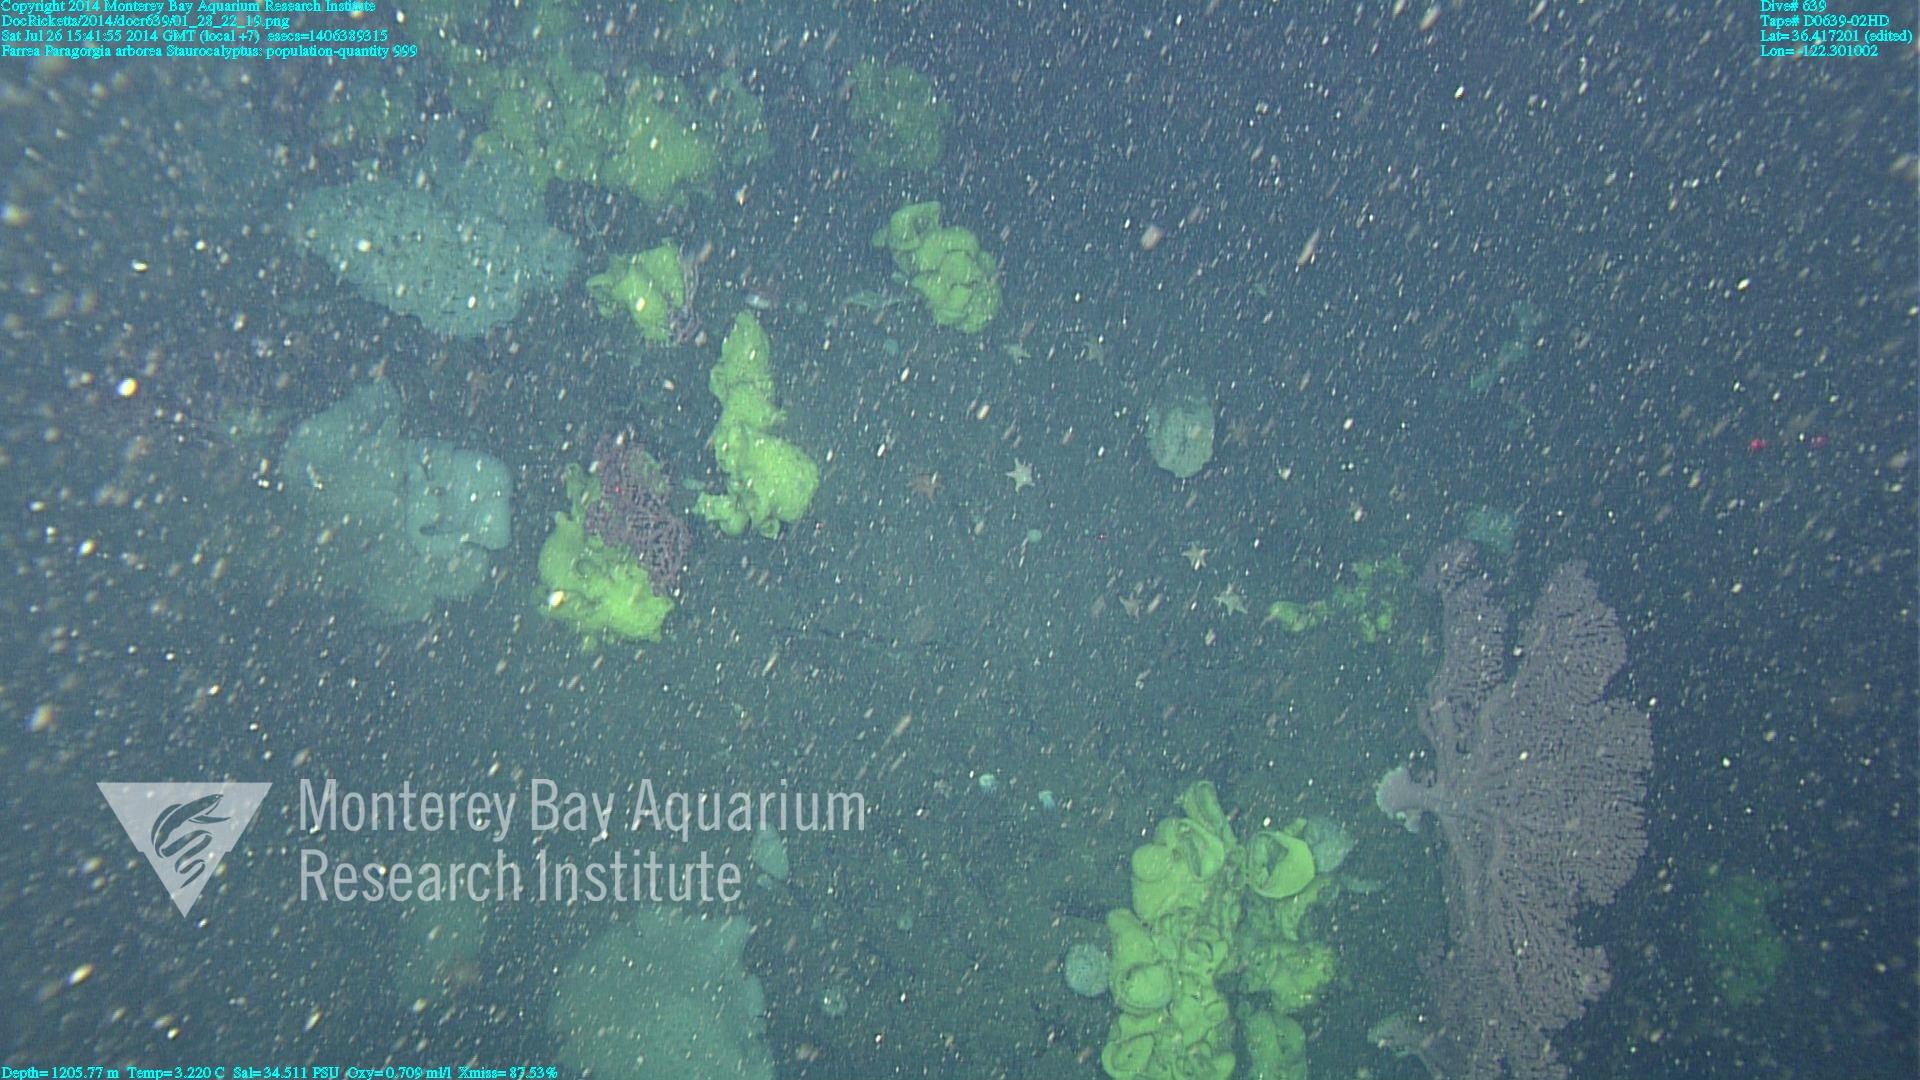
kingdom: Animalia
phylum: Cnidaria
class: Anthozoa
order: Scleralcyonacea
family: Coralliidae
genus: Paragorgia
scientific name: Paragorgia arborea
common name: Bubble gum coral
